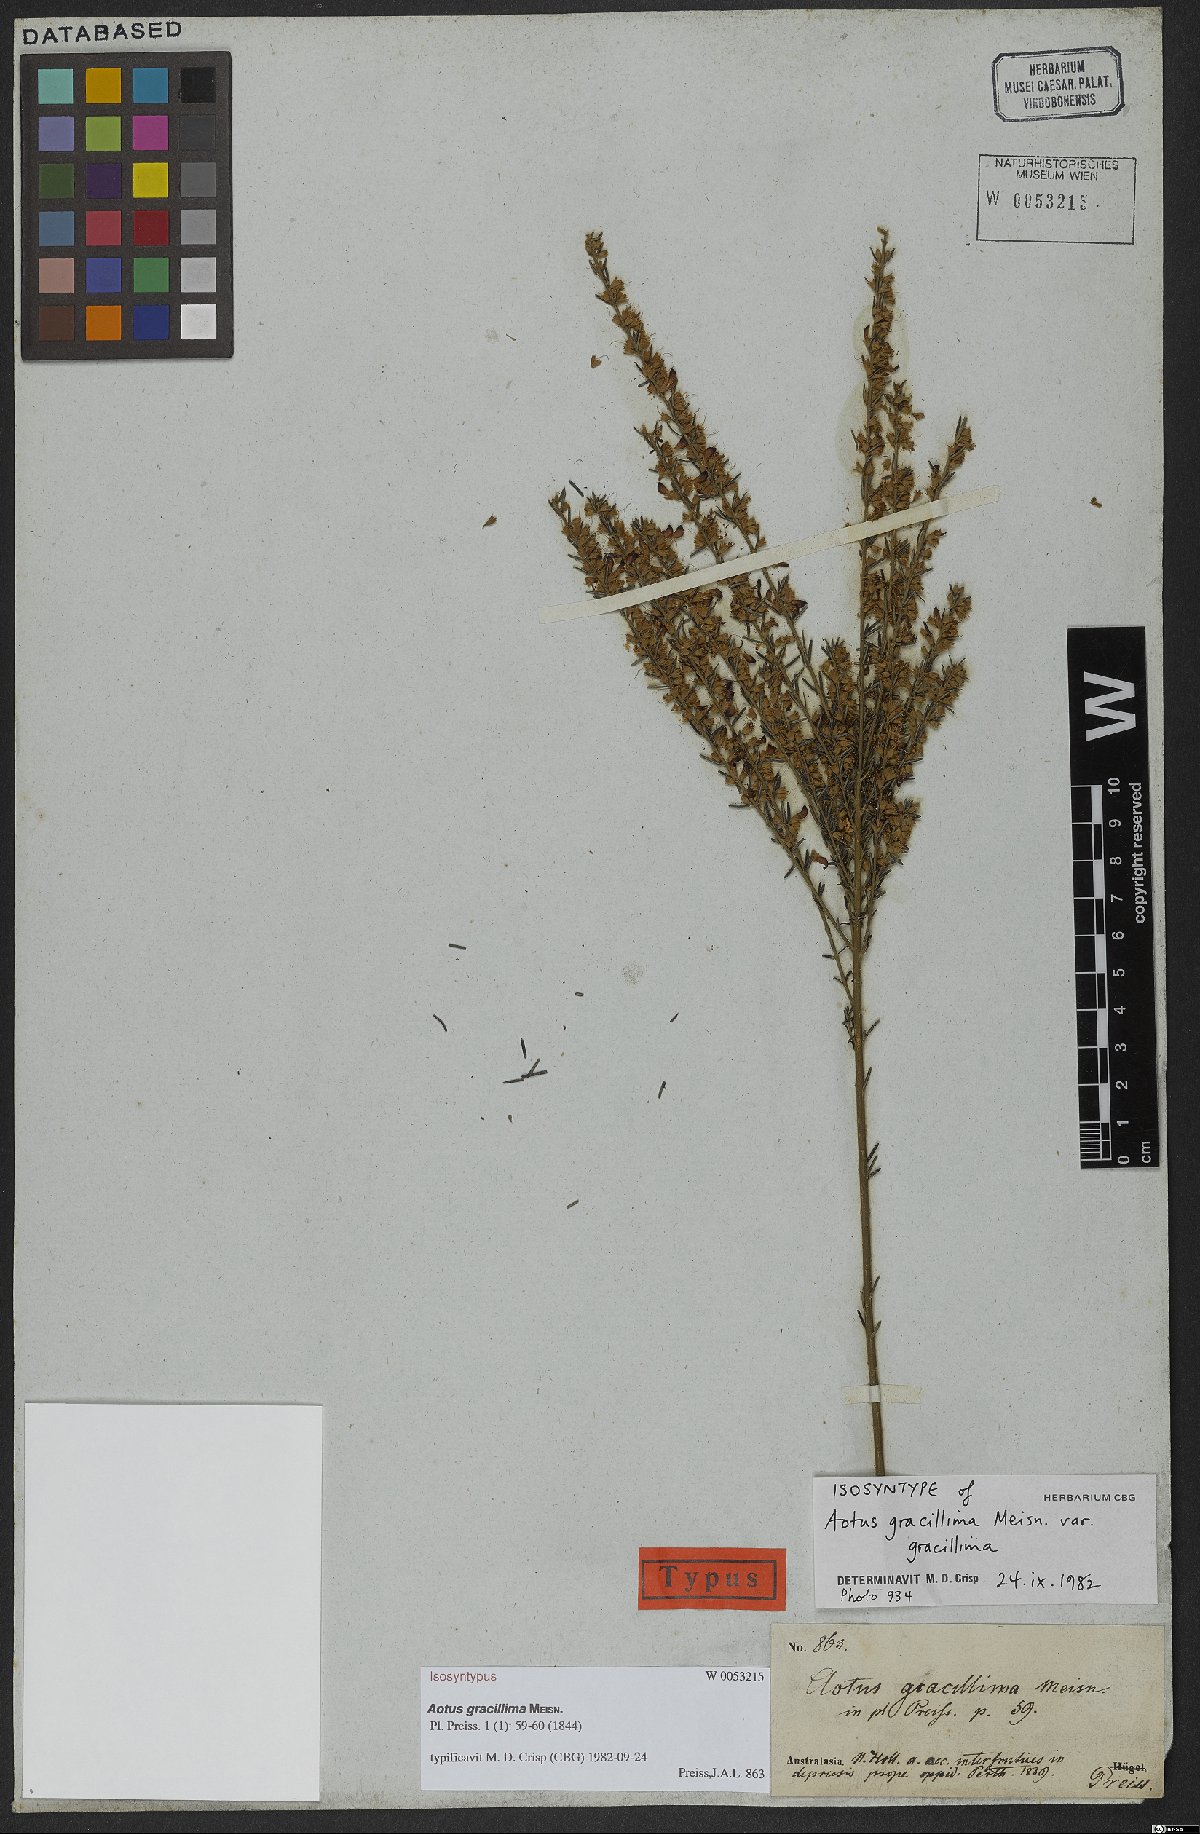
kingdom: Plantae
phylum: Tracheophyta
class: Magnoliopsida
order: Fabales
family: Fabaceae
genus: Aotus
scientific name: Aotus gracillima
